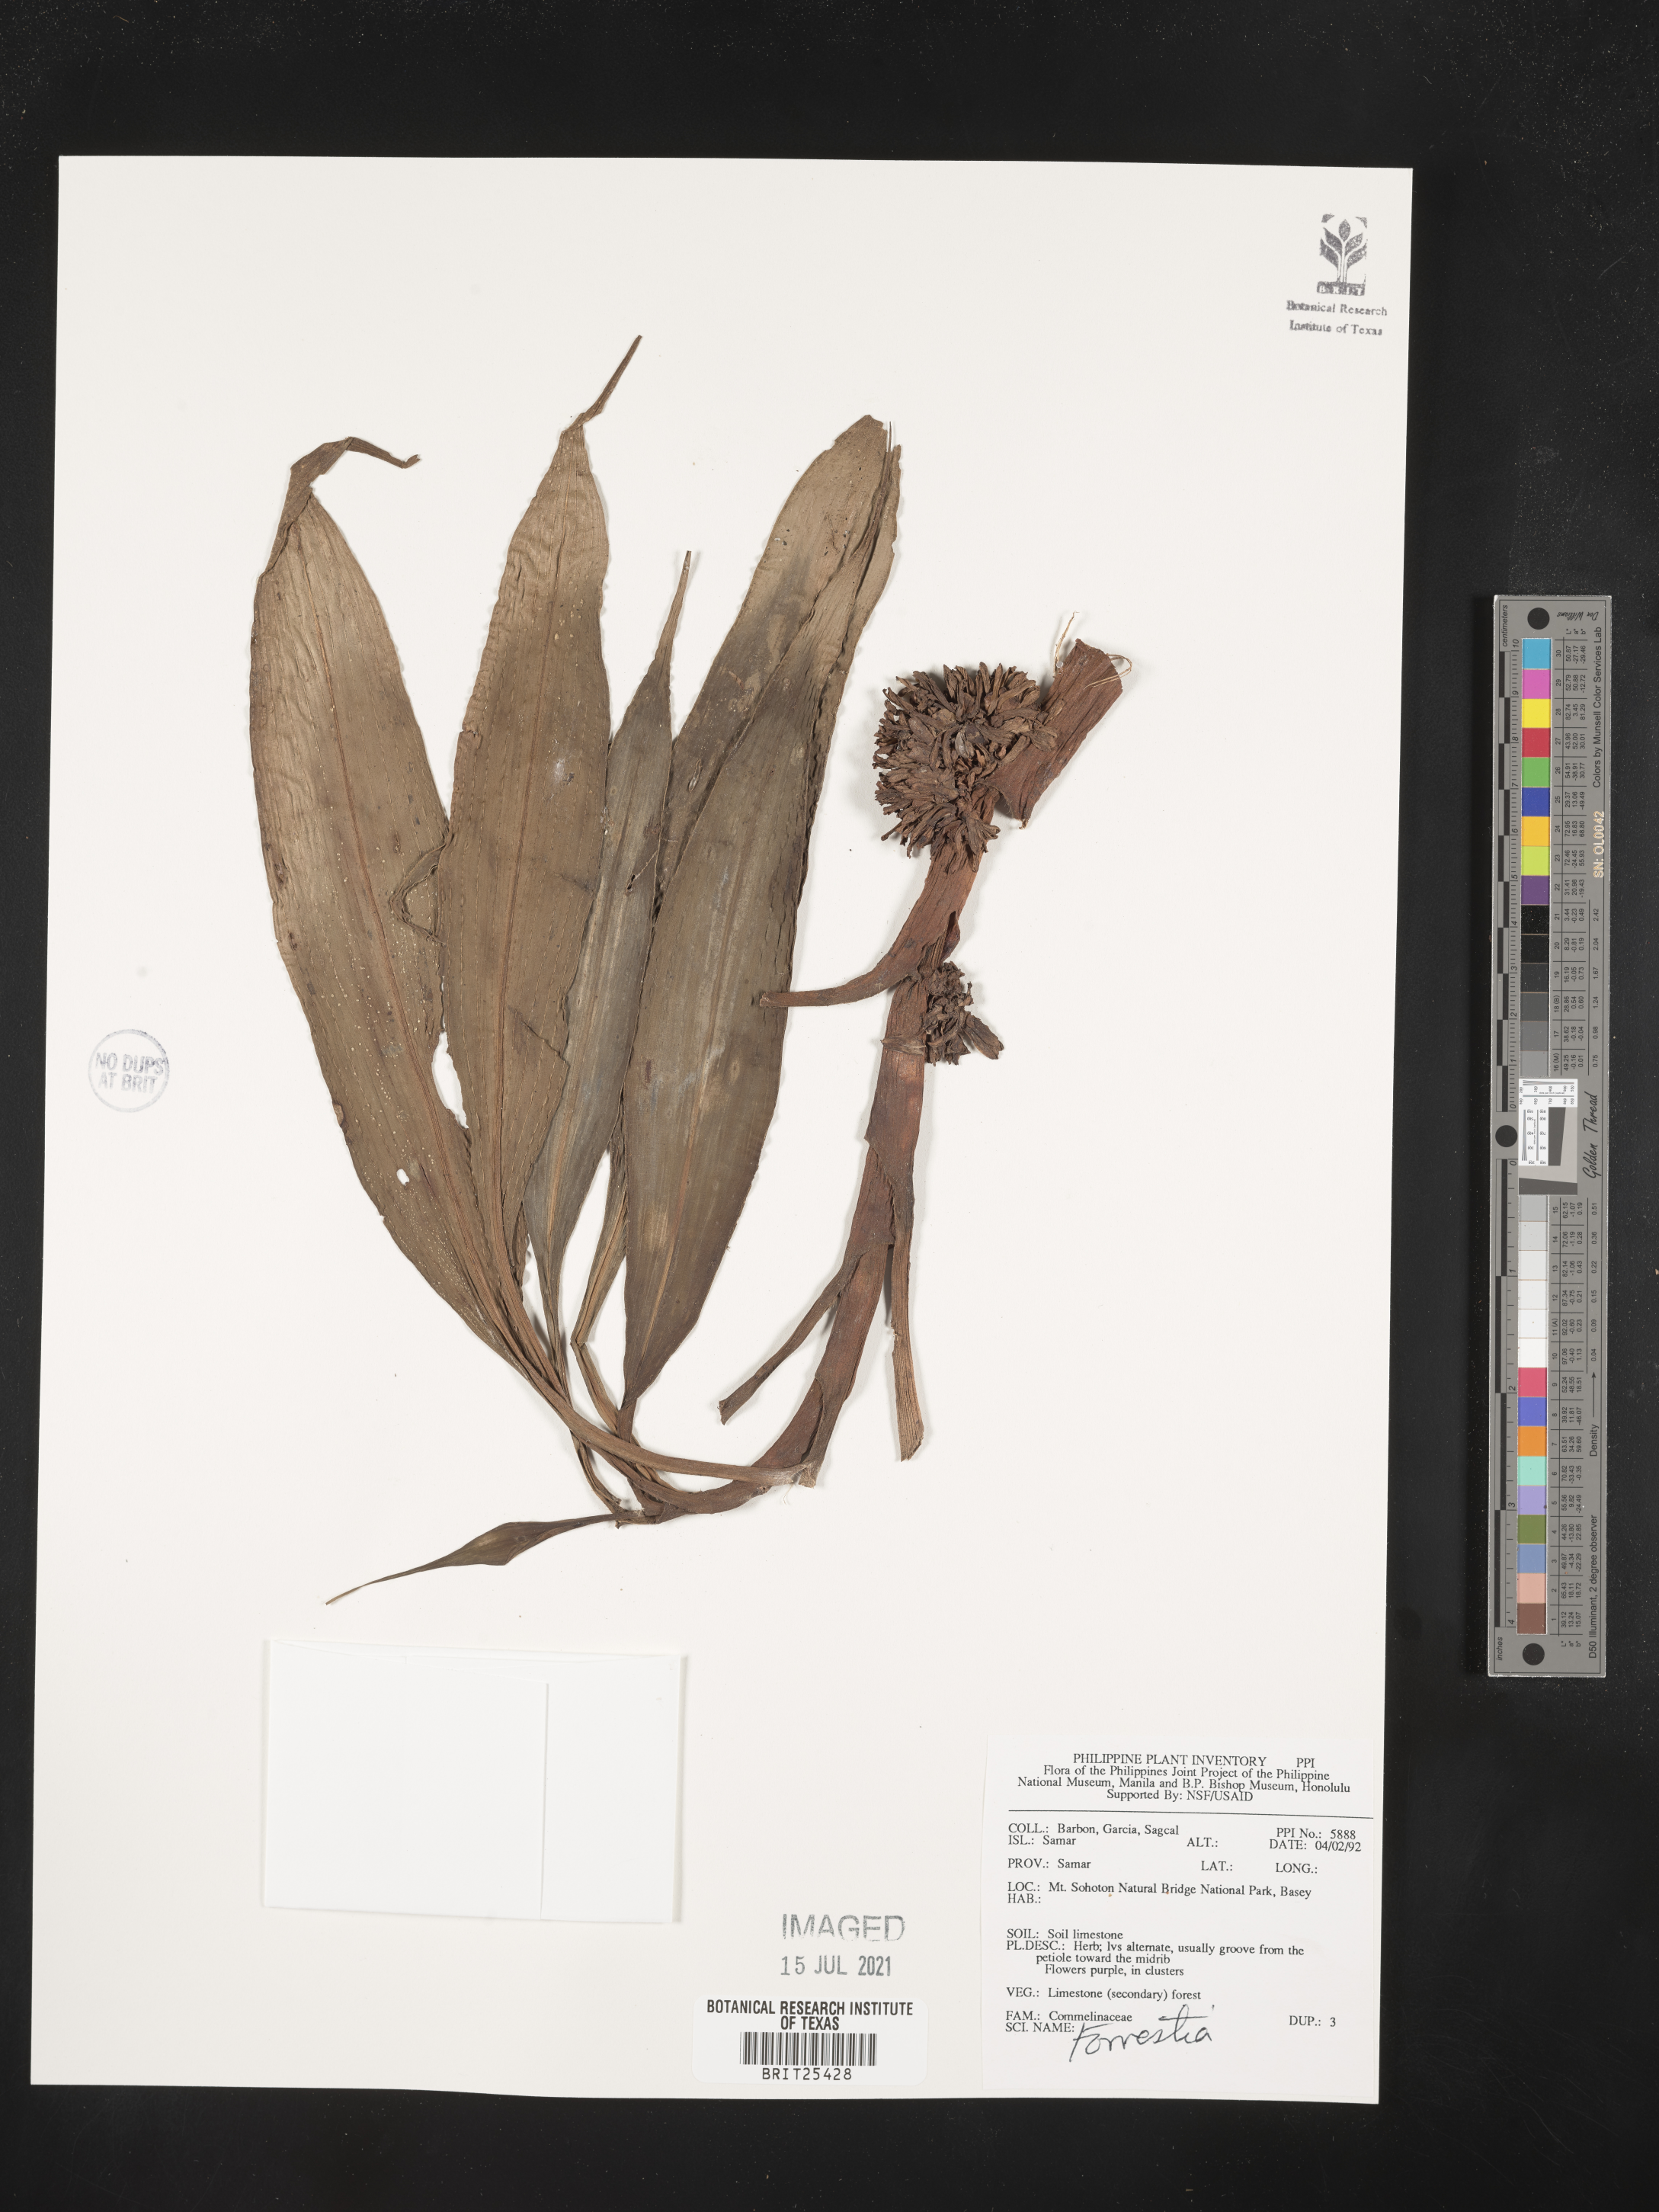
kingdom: Plantae
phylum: Tracheophyta
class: Magnoliopsida
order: Rosales
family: Rhamnaceae
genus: Ceanothus
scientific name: Ceanothus
